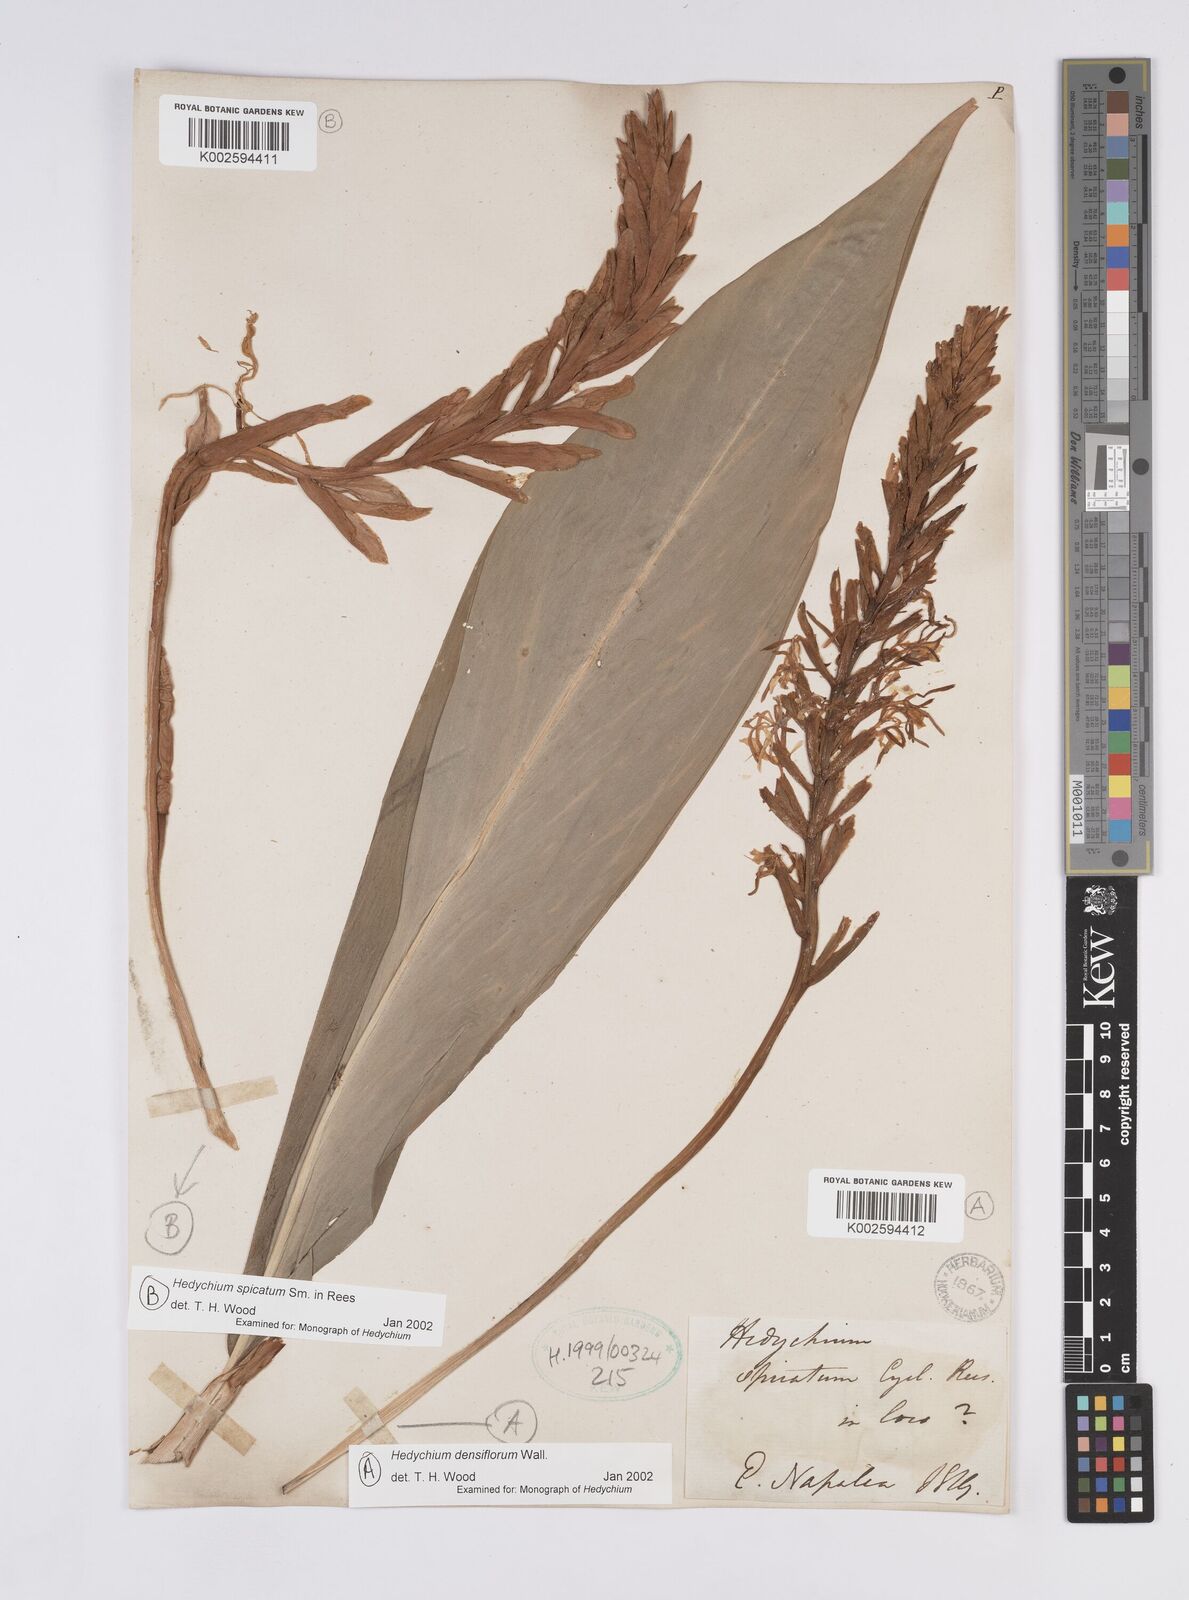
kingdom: Plantae
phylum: Tracheophyta
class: Liliopsida
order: Zingiberales
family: Zingiberaceae
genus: Hedychium
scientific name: Hedychium spicatum
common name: Spiked ginger-lily
